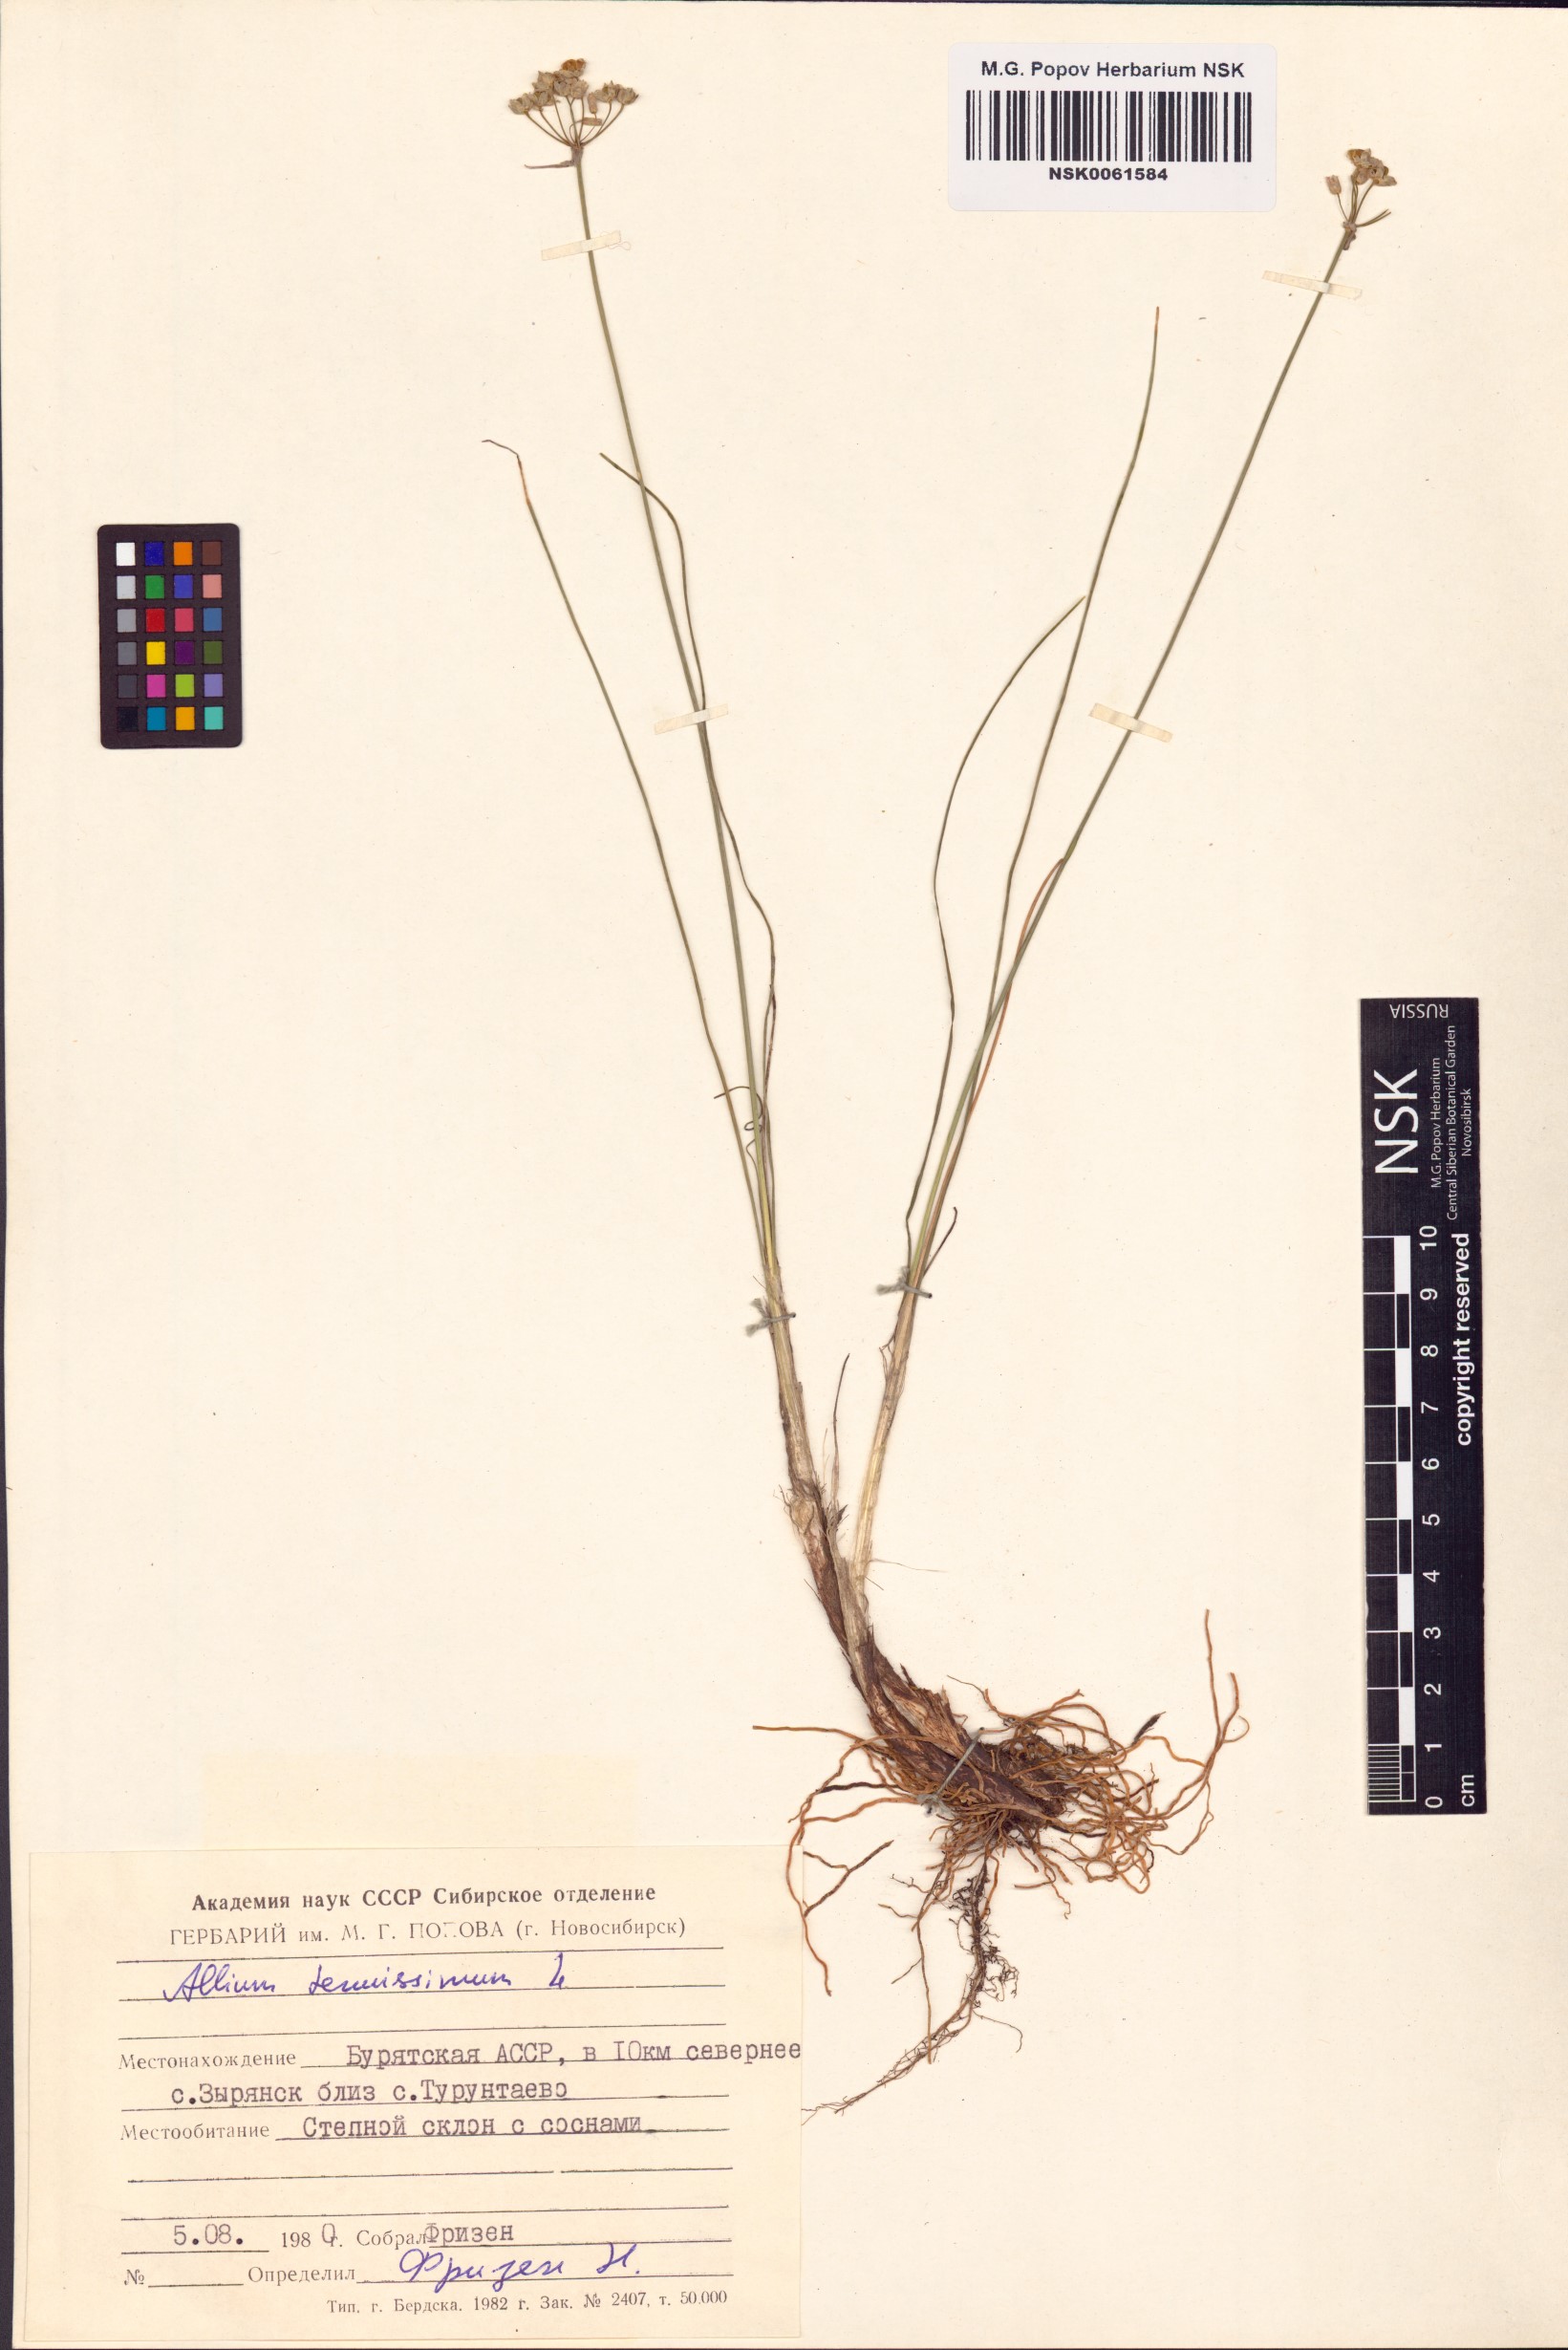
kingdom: Plantae
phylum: Tracheophyta
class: Liliopsida
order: Asparagales
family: Amaryllidaceae
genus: Allium
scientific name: Allium tenuissimum
